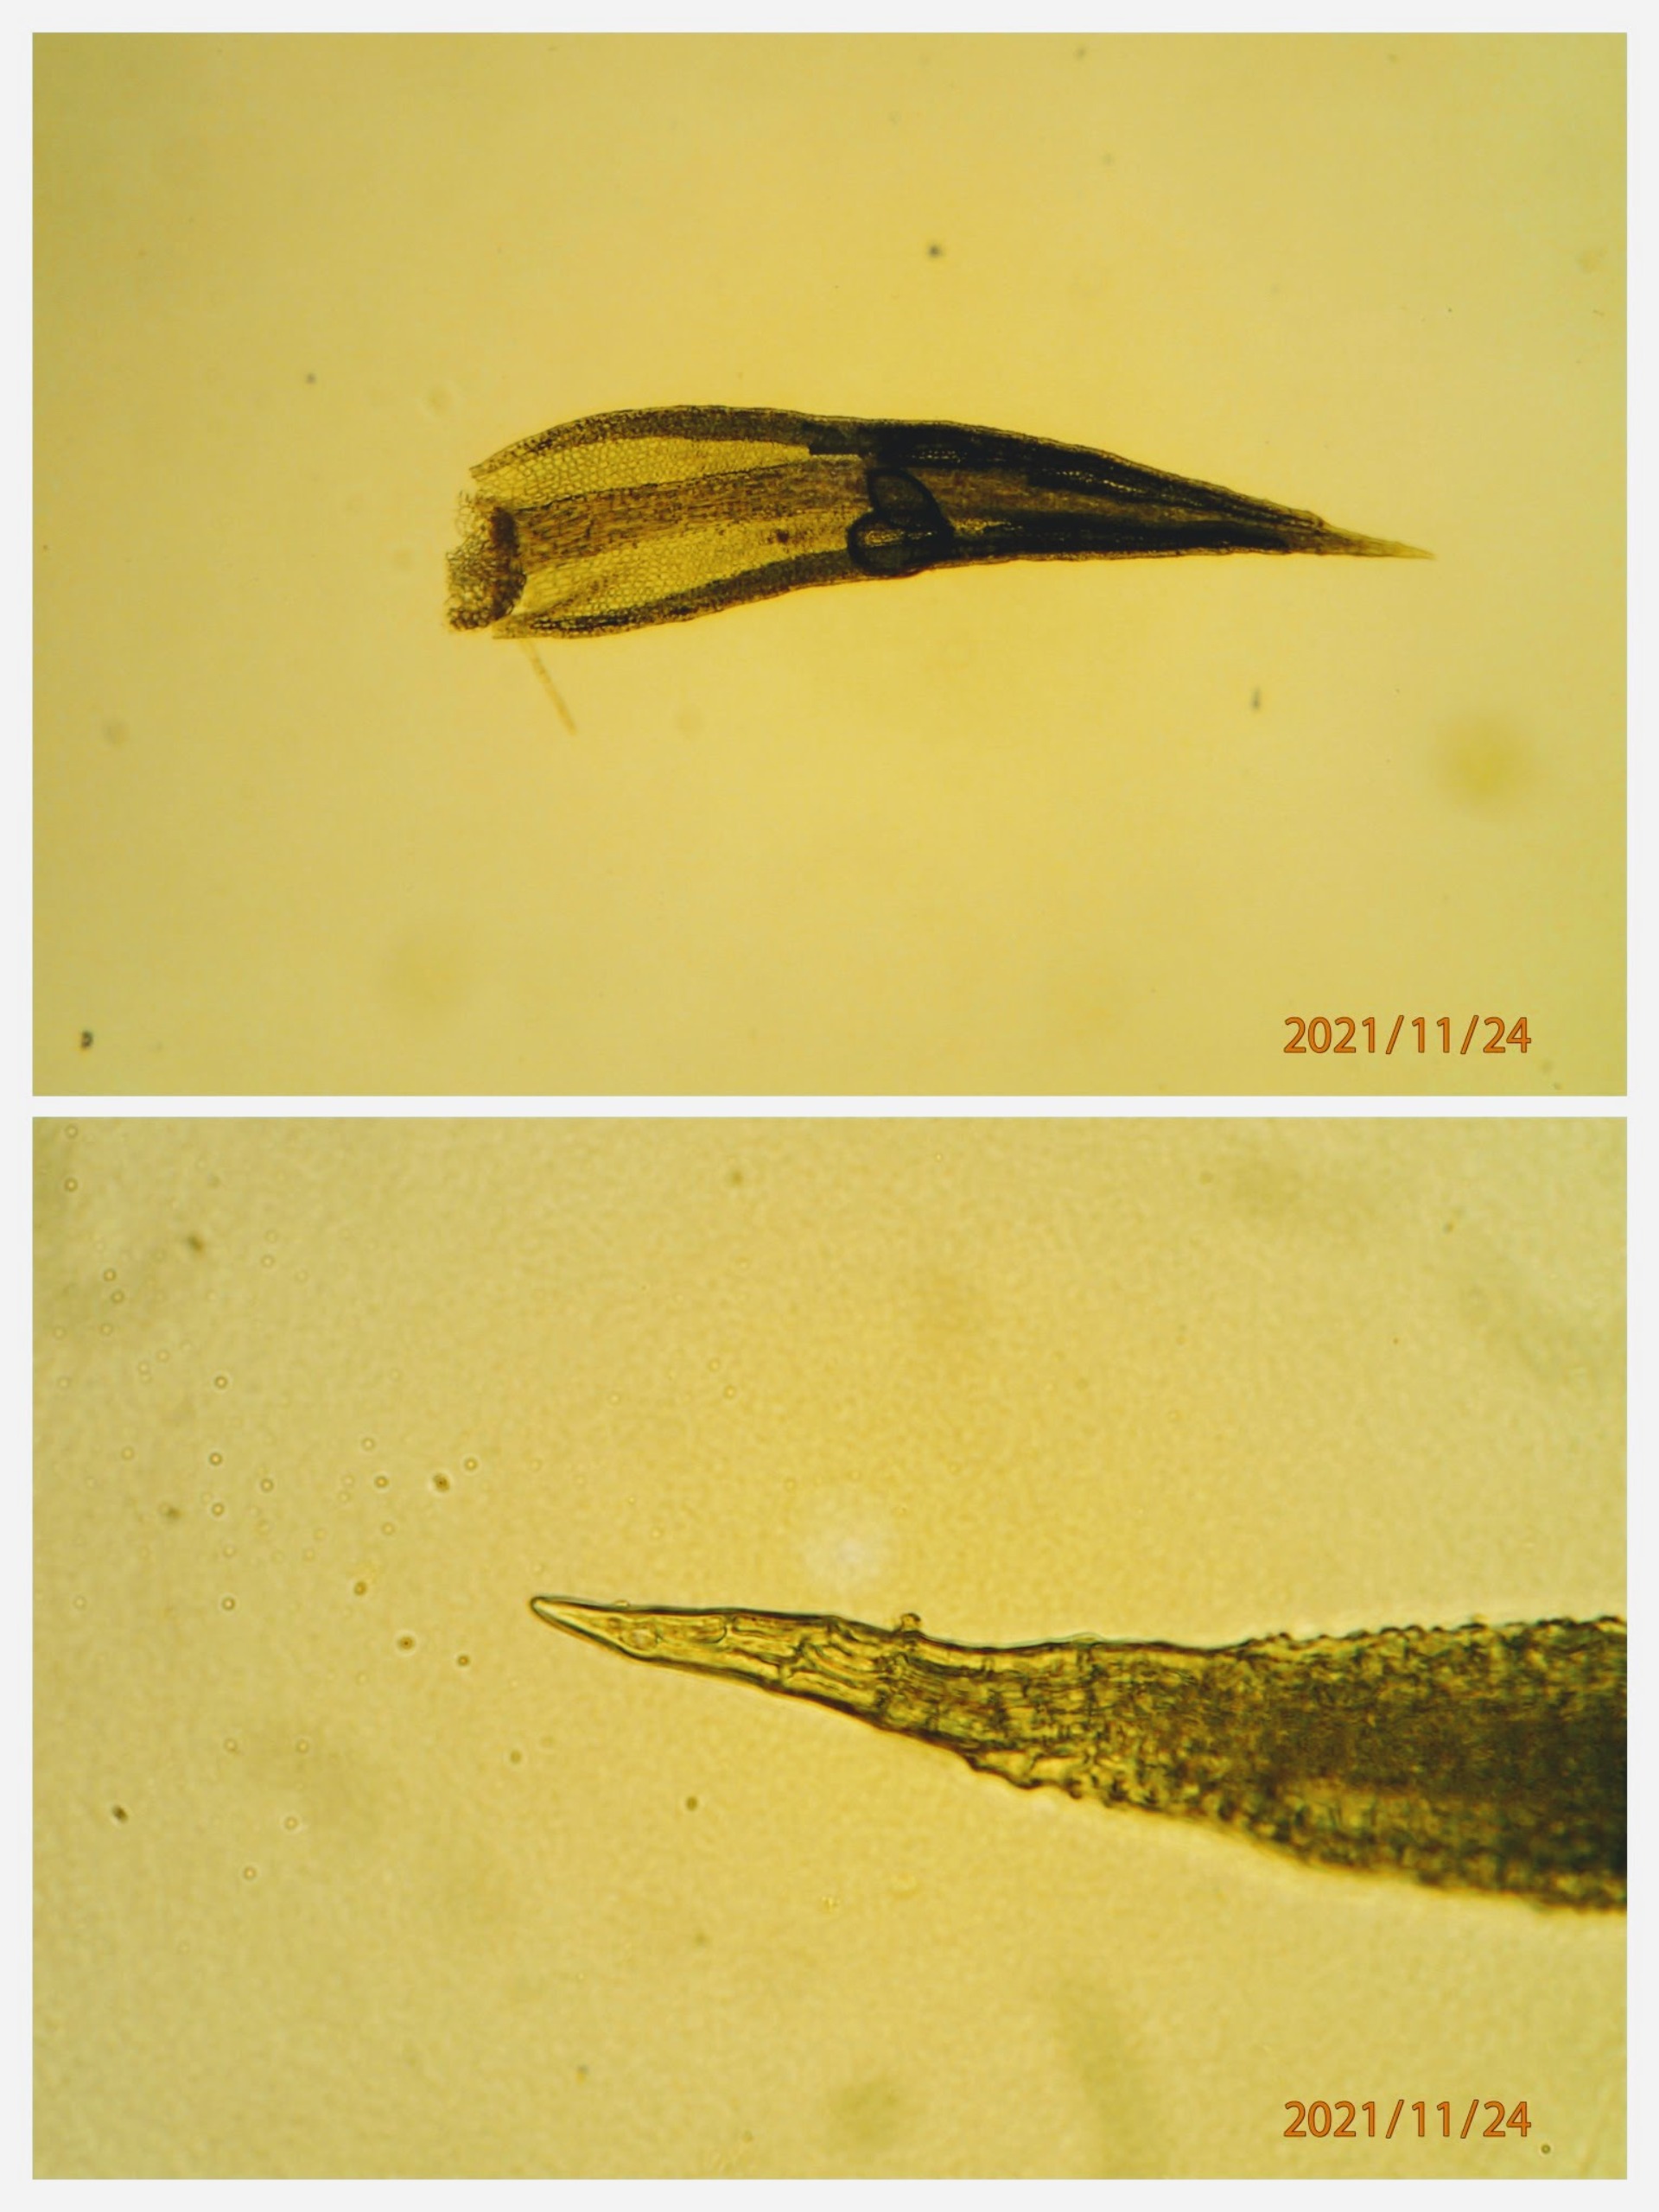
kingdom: Plantae
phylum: Bryophyta
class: Bryopsida
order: Pottiales
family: Pottiaceae
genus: Pseudocrossidium
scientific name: Pseudocrossidium hornschuchianum
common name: Spids rullerand
